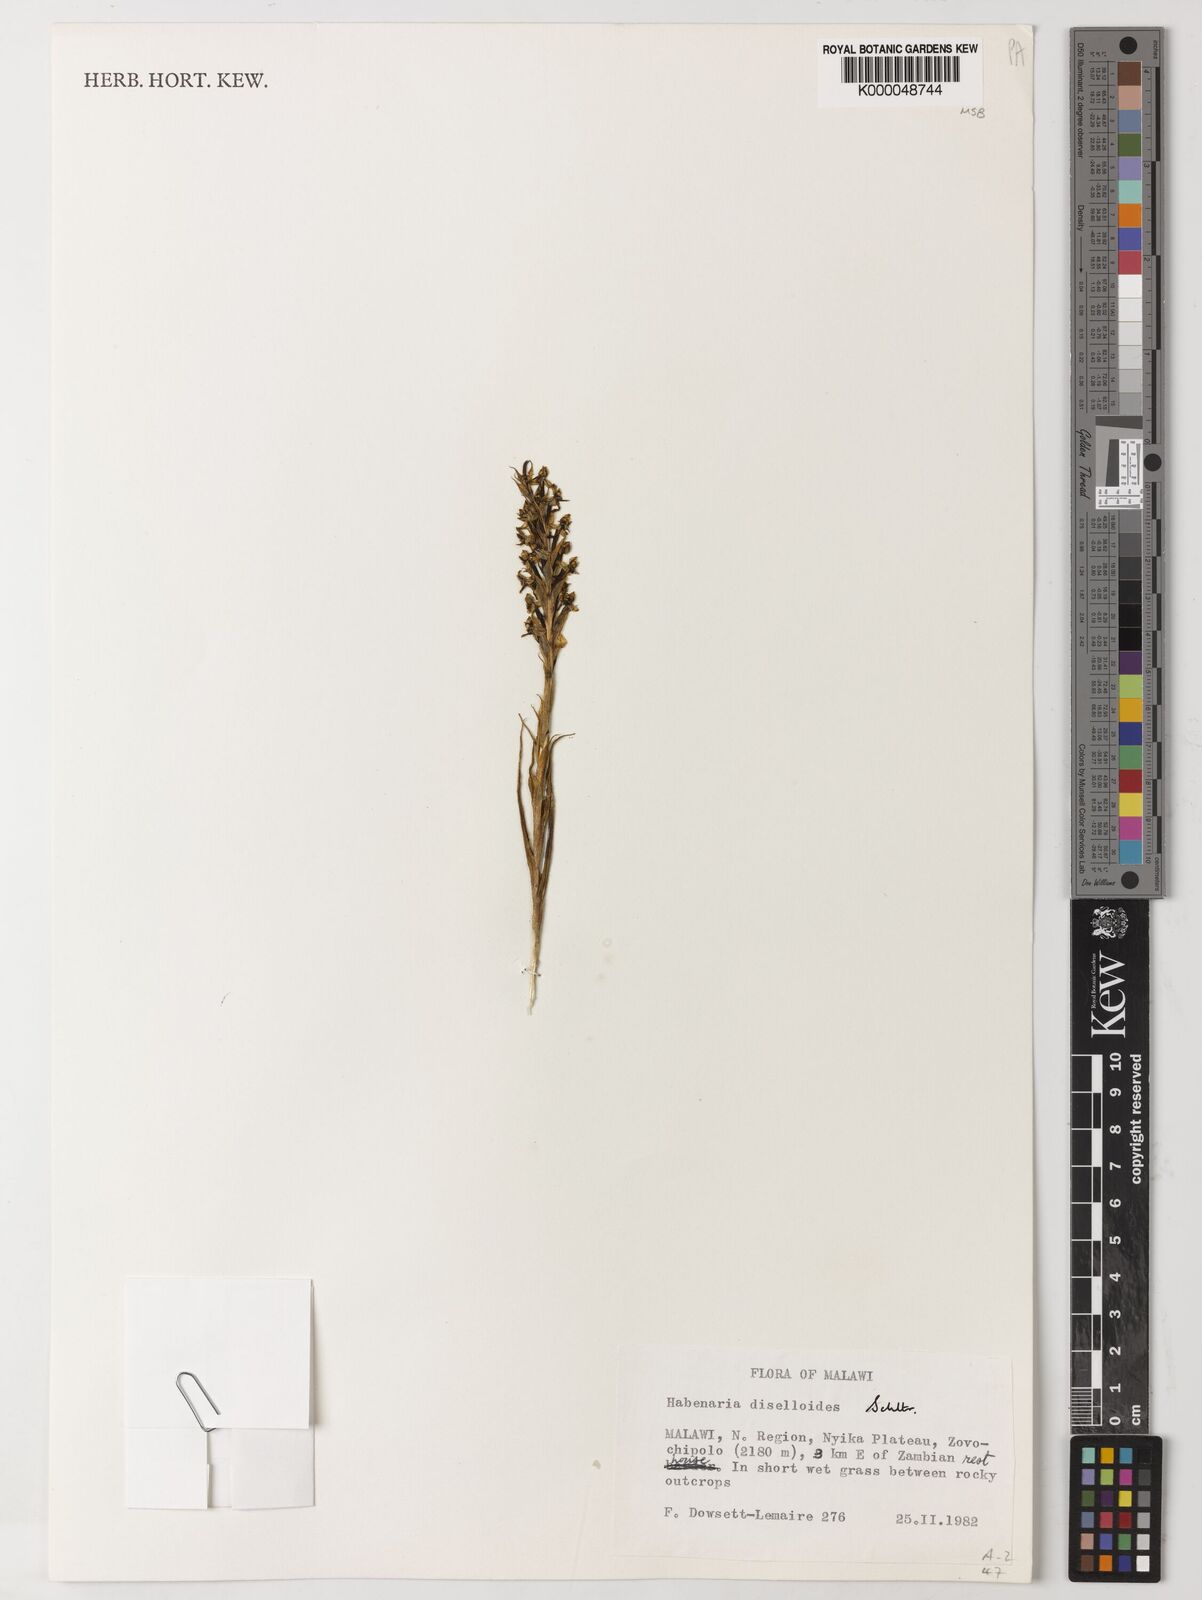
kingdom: Plantae
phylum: Tracheophyta
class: Liliopsida
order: Asparagales
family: Orchidaceae
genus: Habenaria
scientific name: Habenaria diselloides
